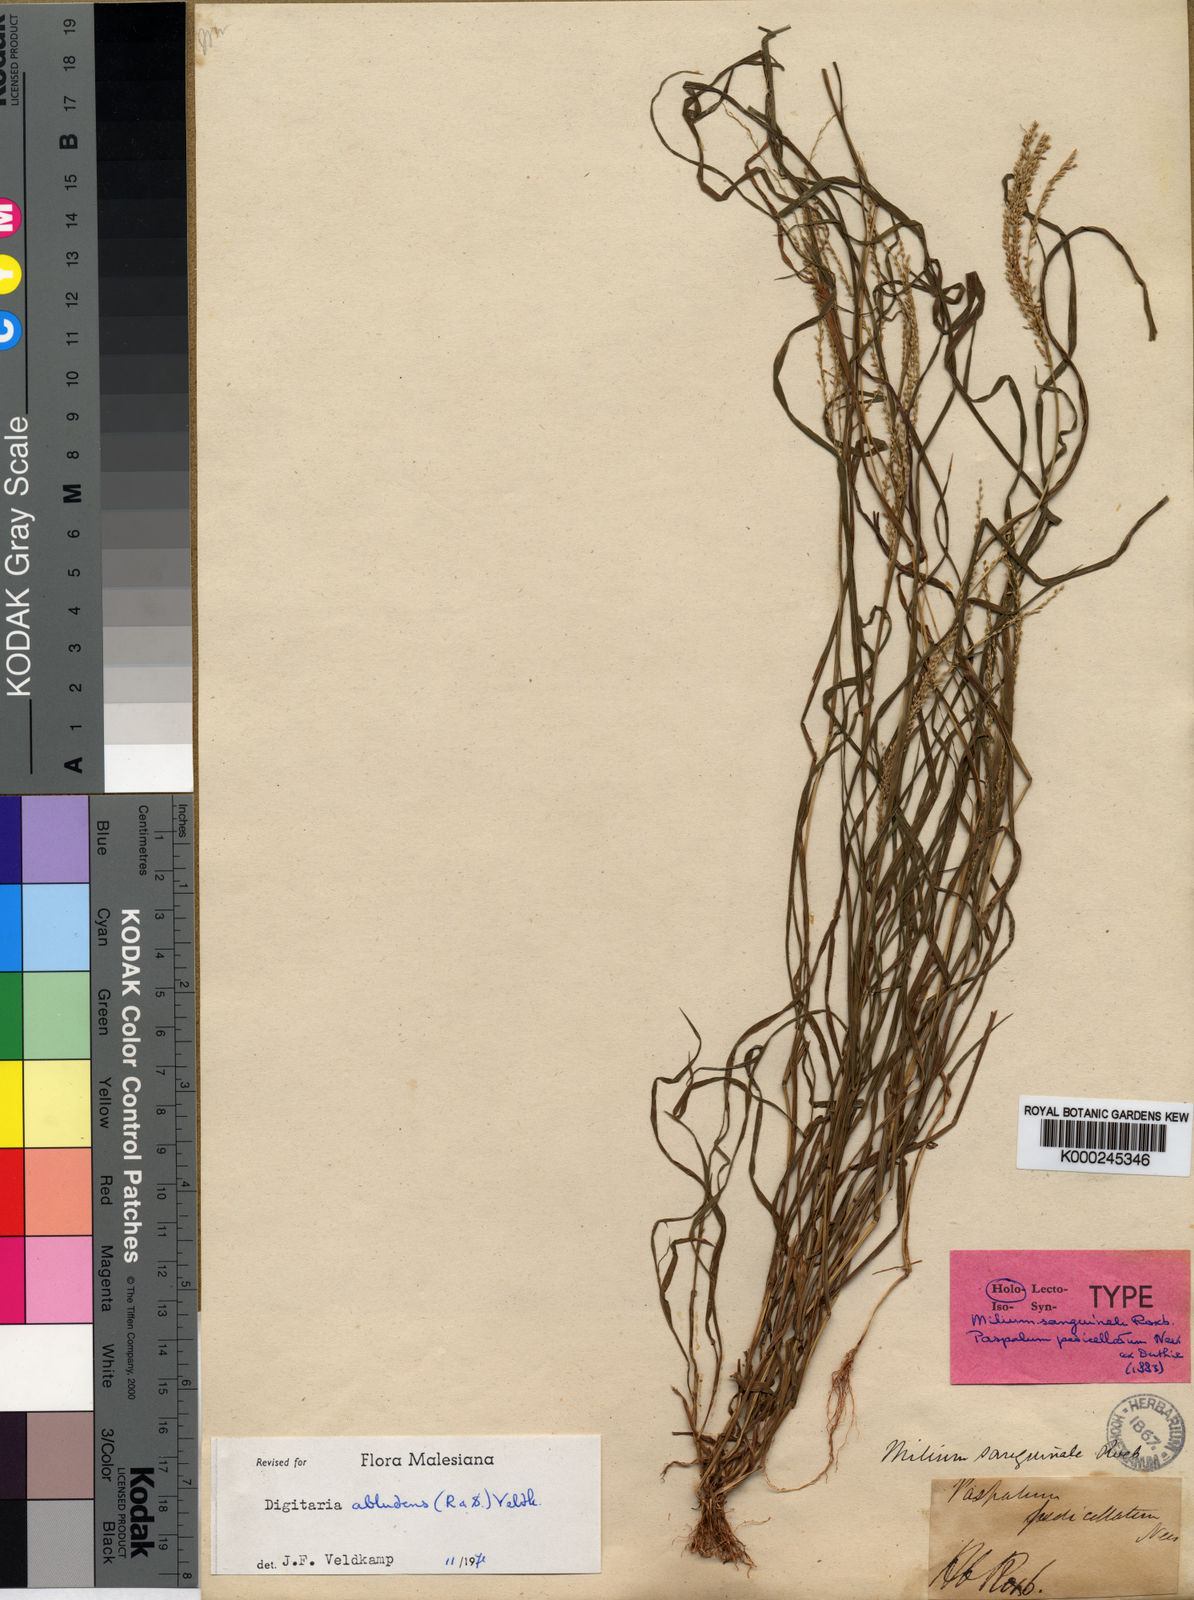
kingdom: Plantae
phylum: Tracheophyta
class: Liliopsida
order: Poales
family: Poaceae
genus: Digitaria
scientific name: Digitaria abludens
